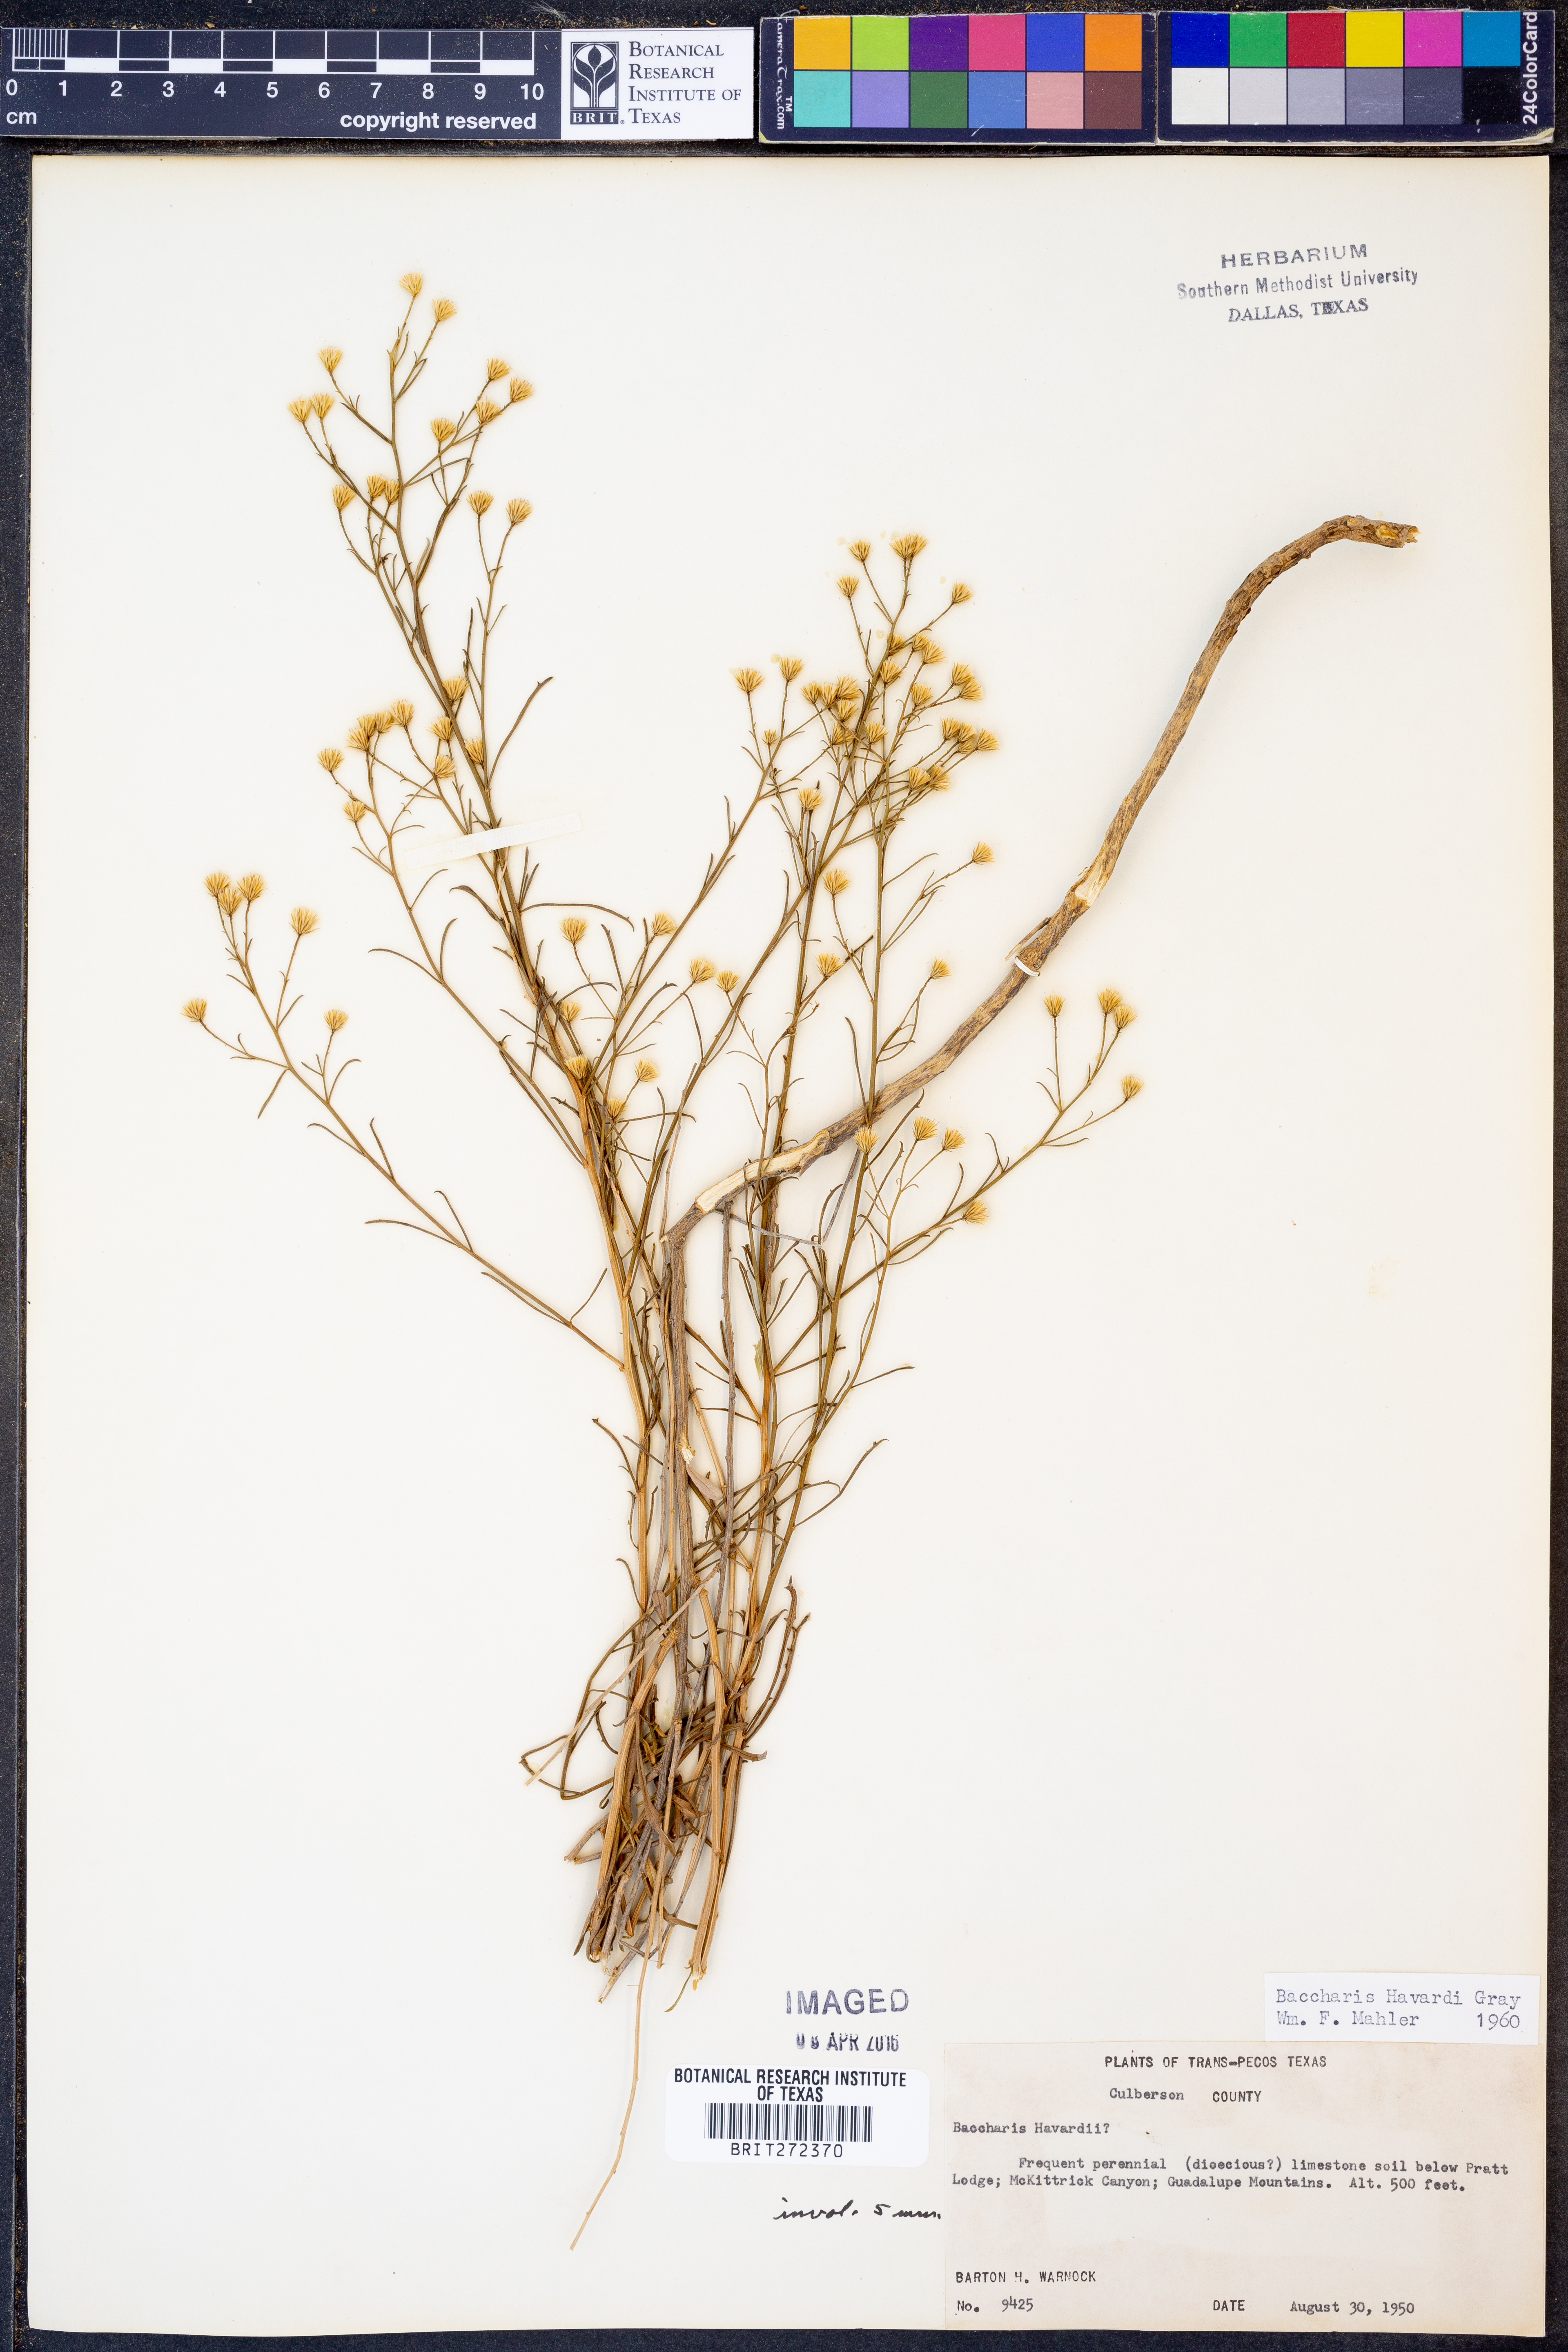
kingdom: Plantae
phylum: Tracheophyta
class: Magnoliopsida
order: Asterales
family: Asteraceae
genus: Baccharis
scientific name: Baccharis havardii
